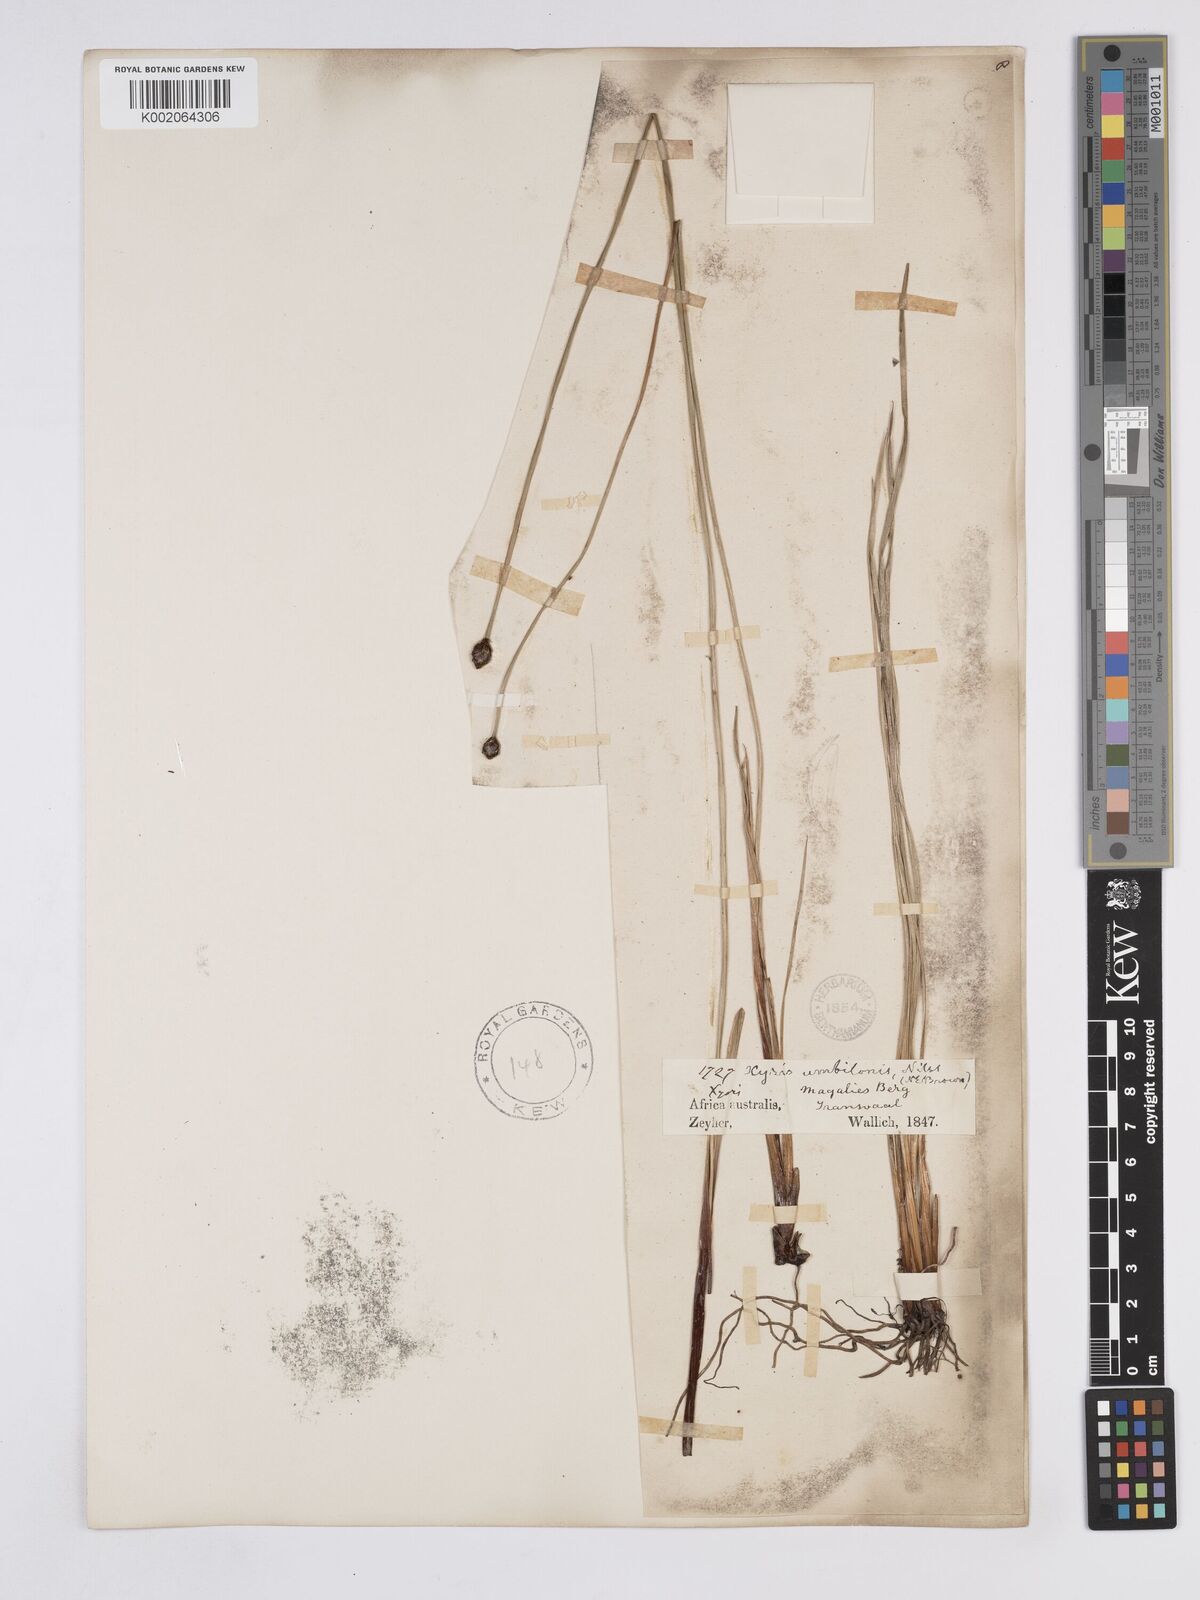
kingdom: Plantae
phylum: Tracheophyta
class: Liliopsida
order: Poales
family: Xyridaceae
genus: Xyris
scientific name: Xyris congensis
